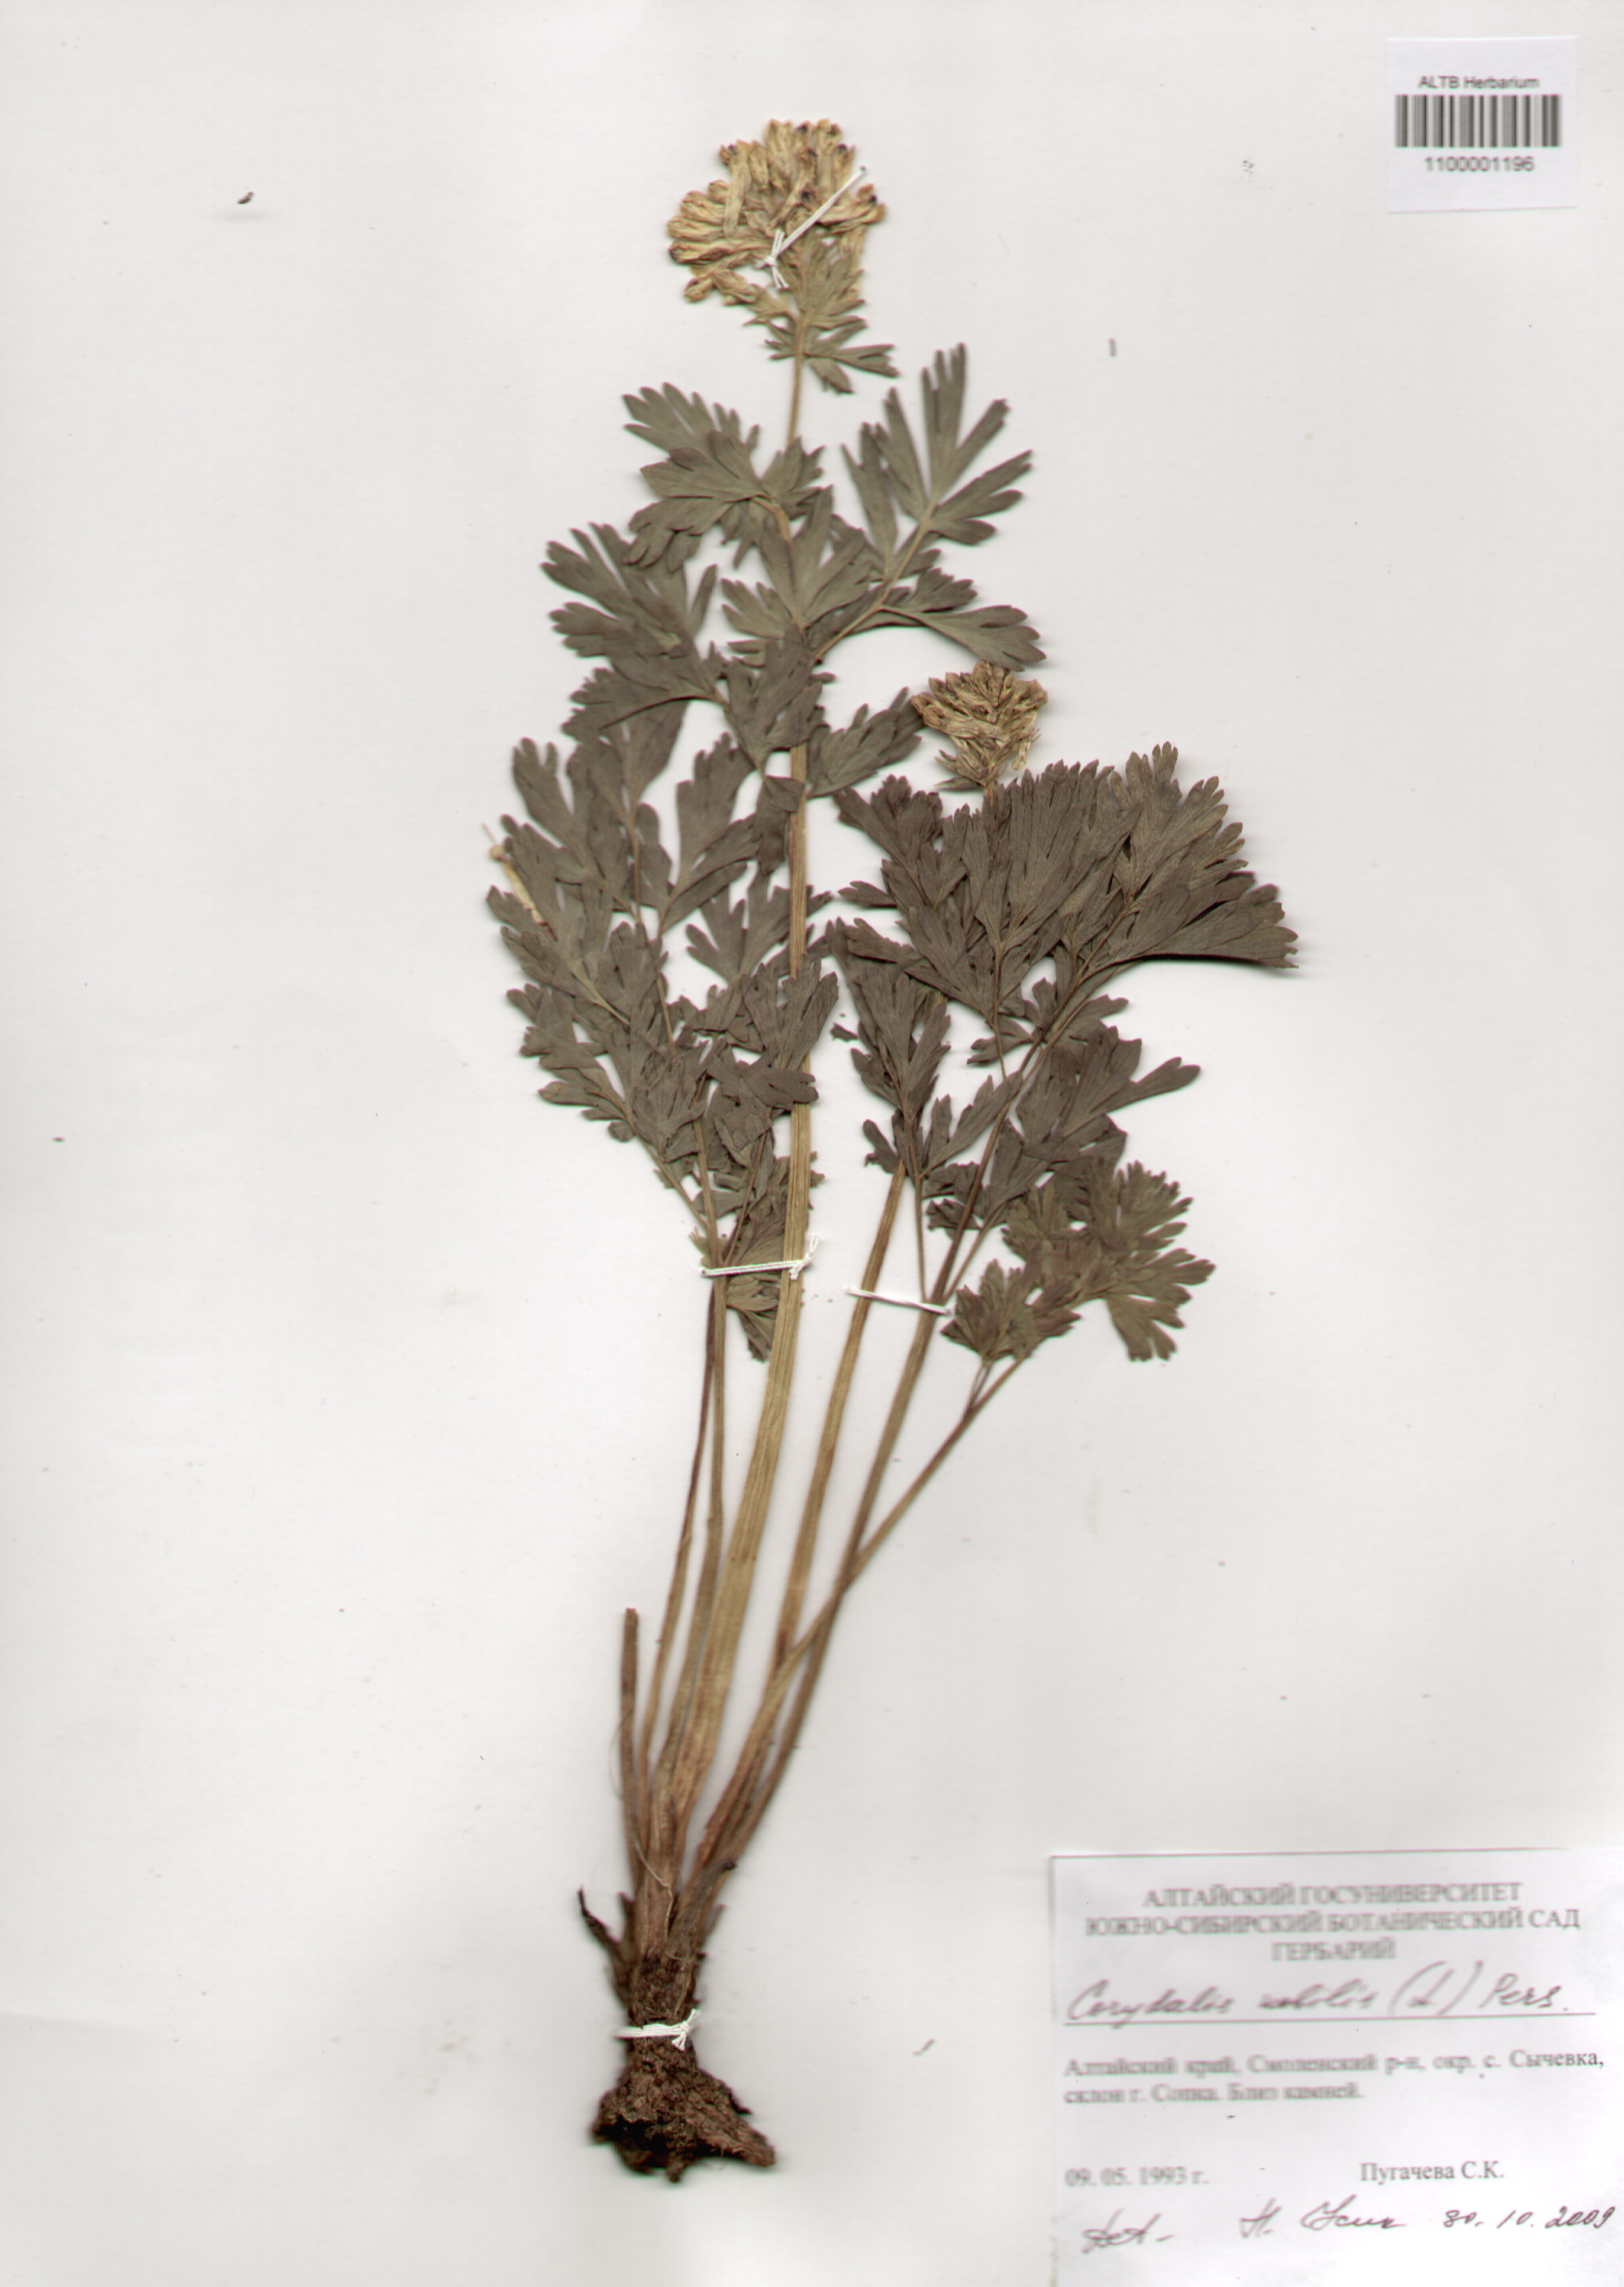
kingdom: Plantae
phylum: Tracheophyta
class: Magnoliopsida
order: Ranunculales
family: Papaveraceae
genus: Corydalis
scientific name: Corydalis nobilis
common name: Siberian corydalis
